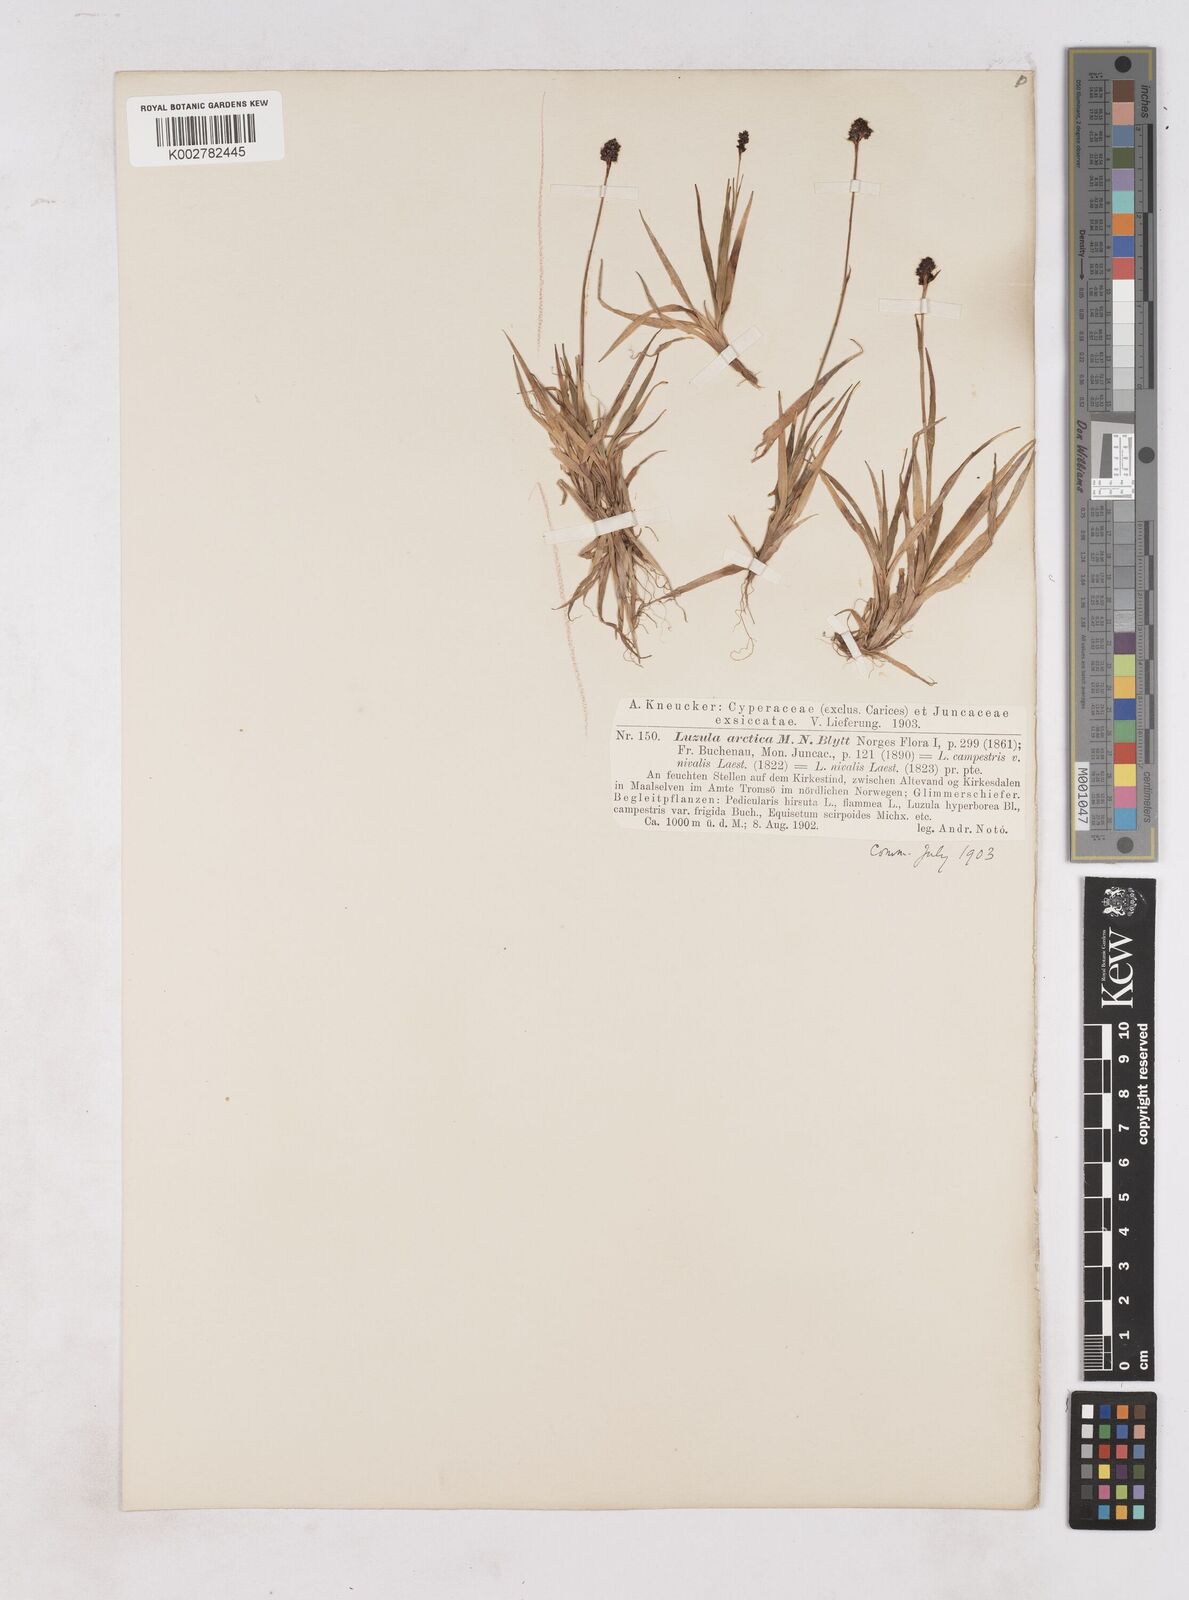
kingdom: Plantae
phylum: Tracheophyta
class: Liliopsida
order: Poales
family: Juncaceae
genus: Luzula
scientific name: Luzula nivalis
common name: Arctic woodrush
